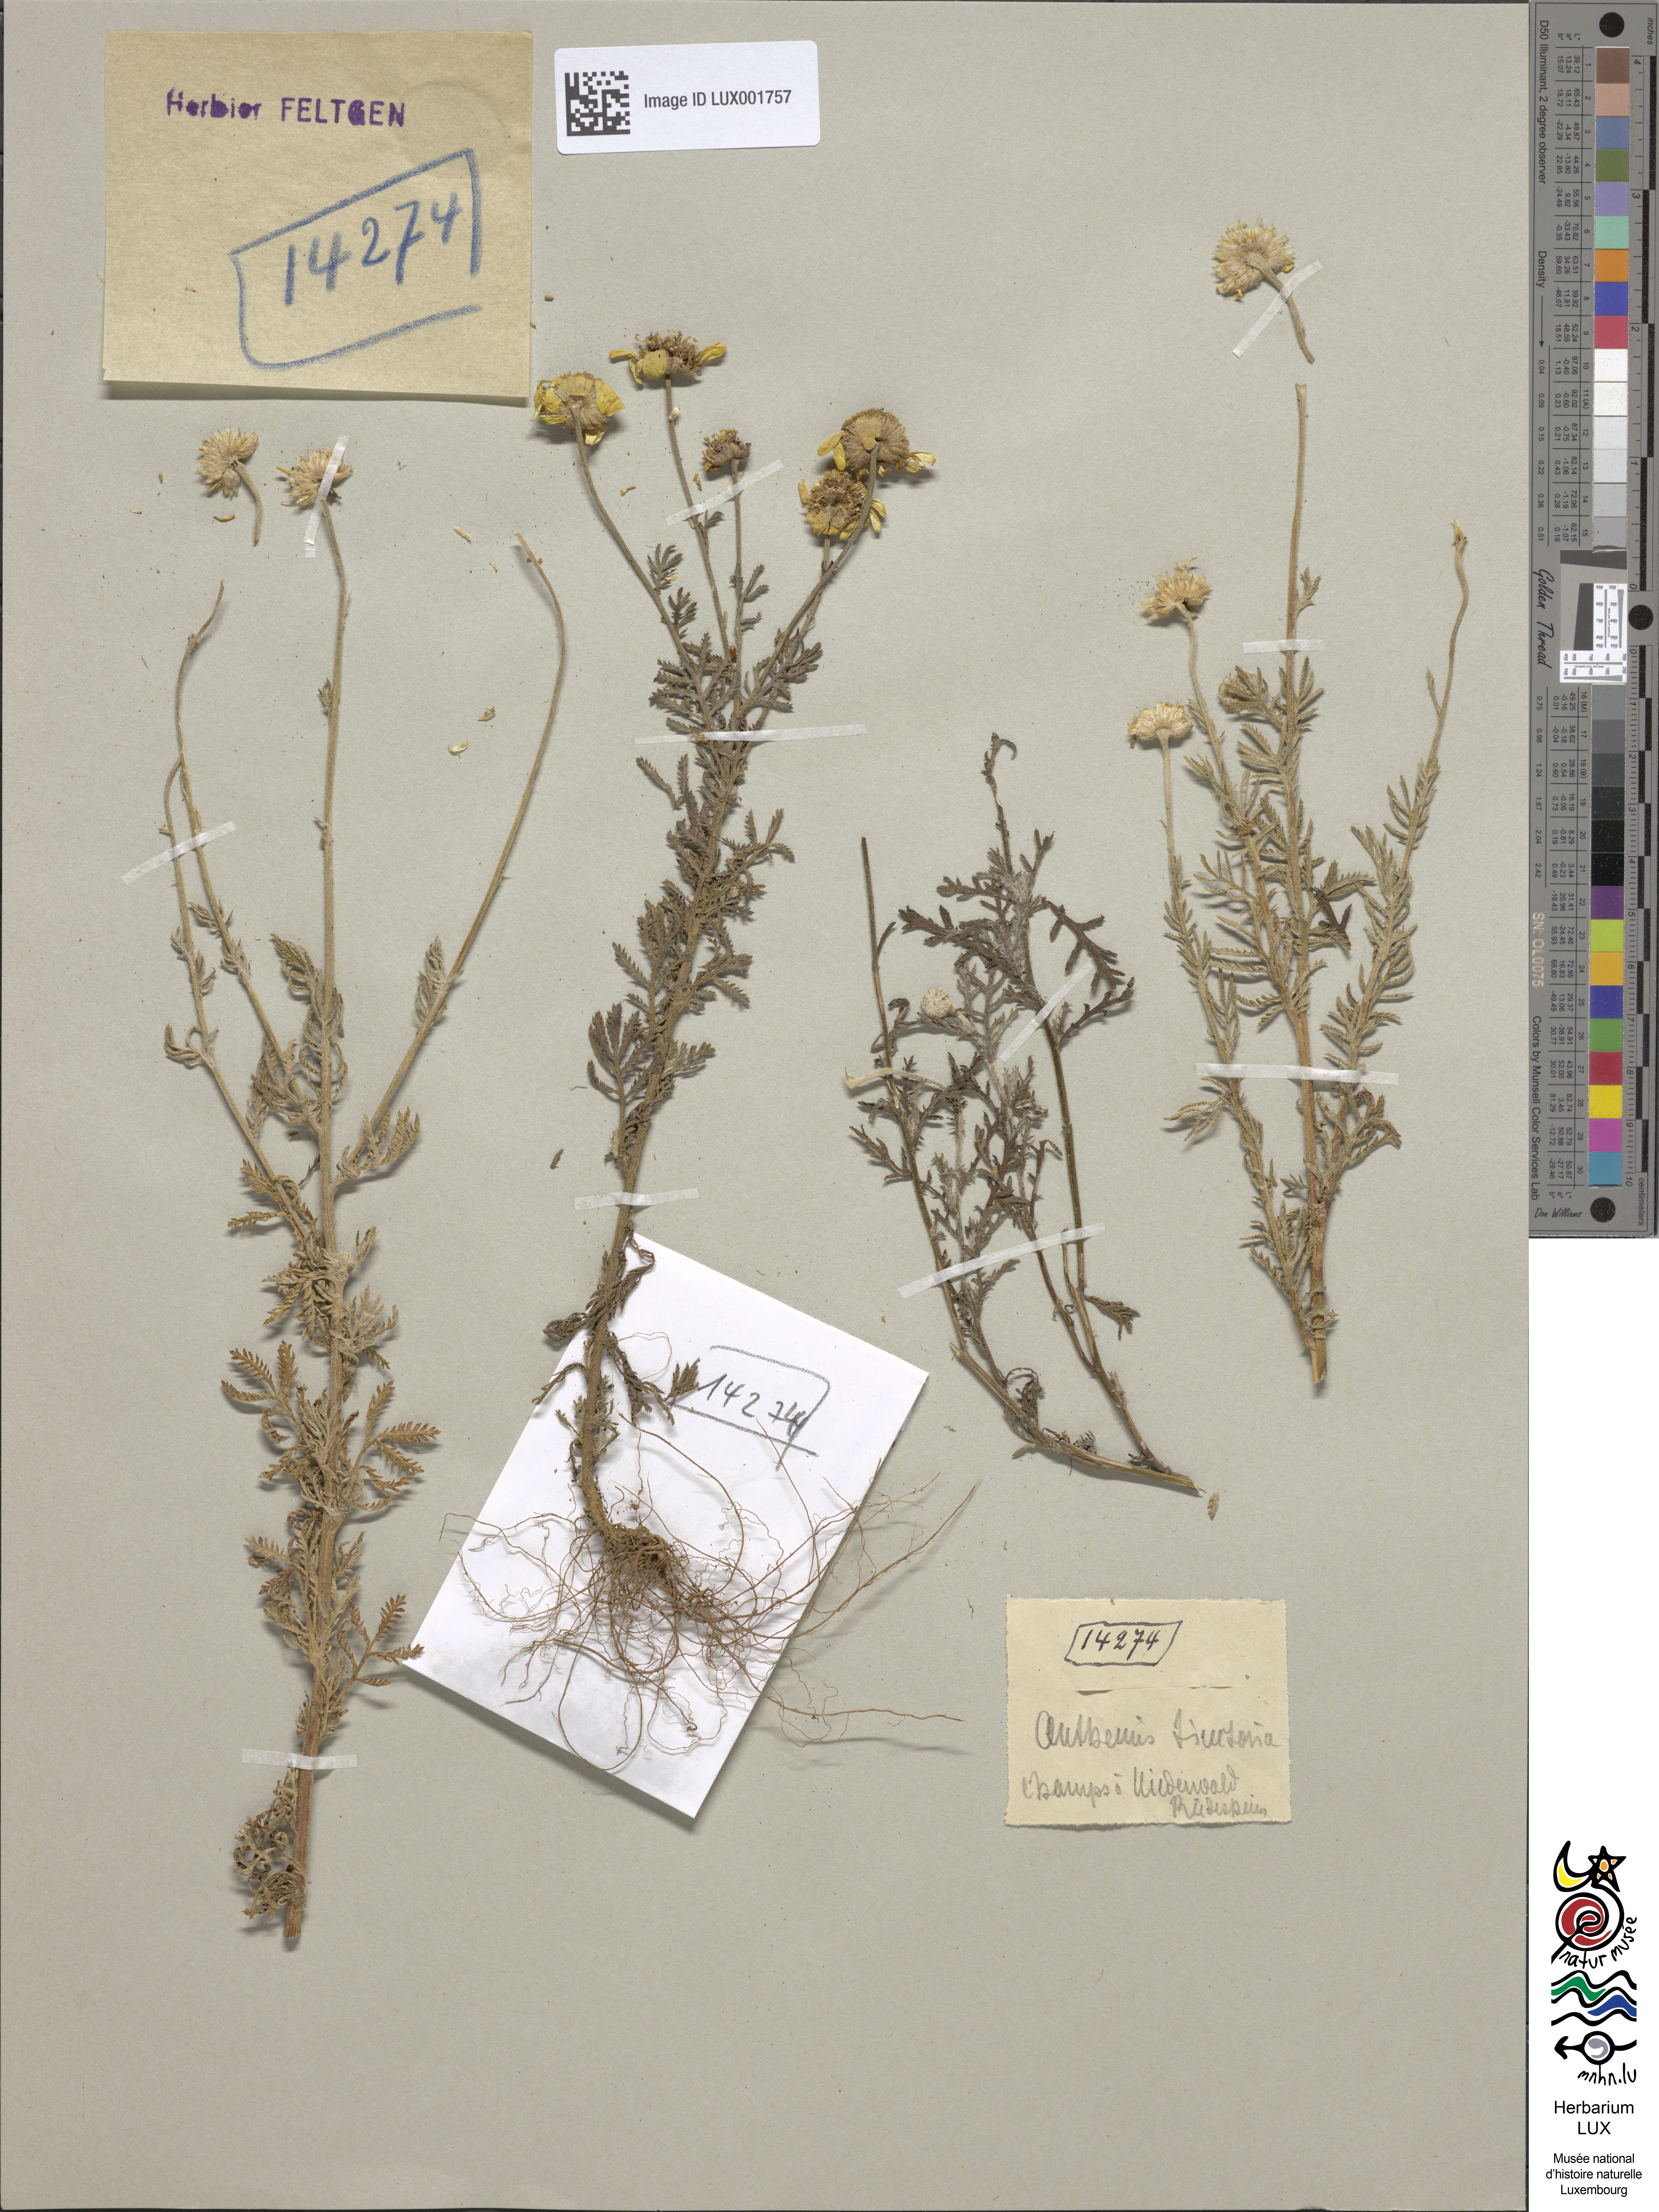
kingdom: Plantae
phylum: Tracheophyta
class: Magnoliopsida
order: Asterales
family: Asteraceae
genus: Cota
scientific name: Cota tinctoria
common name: Golden chamomile
